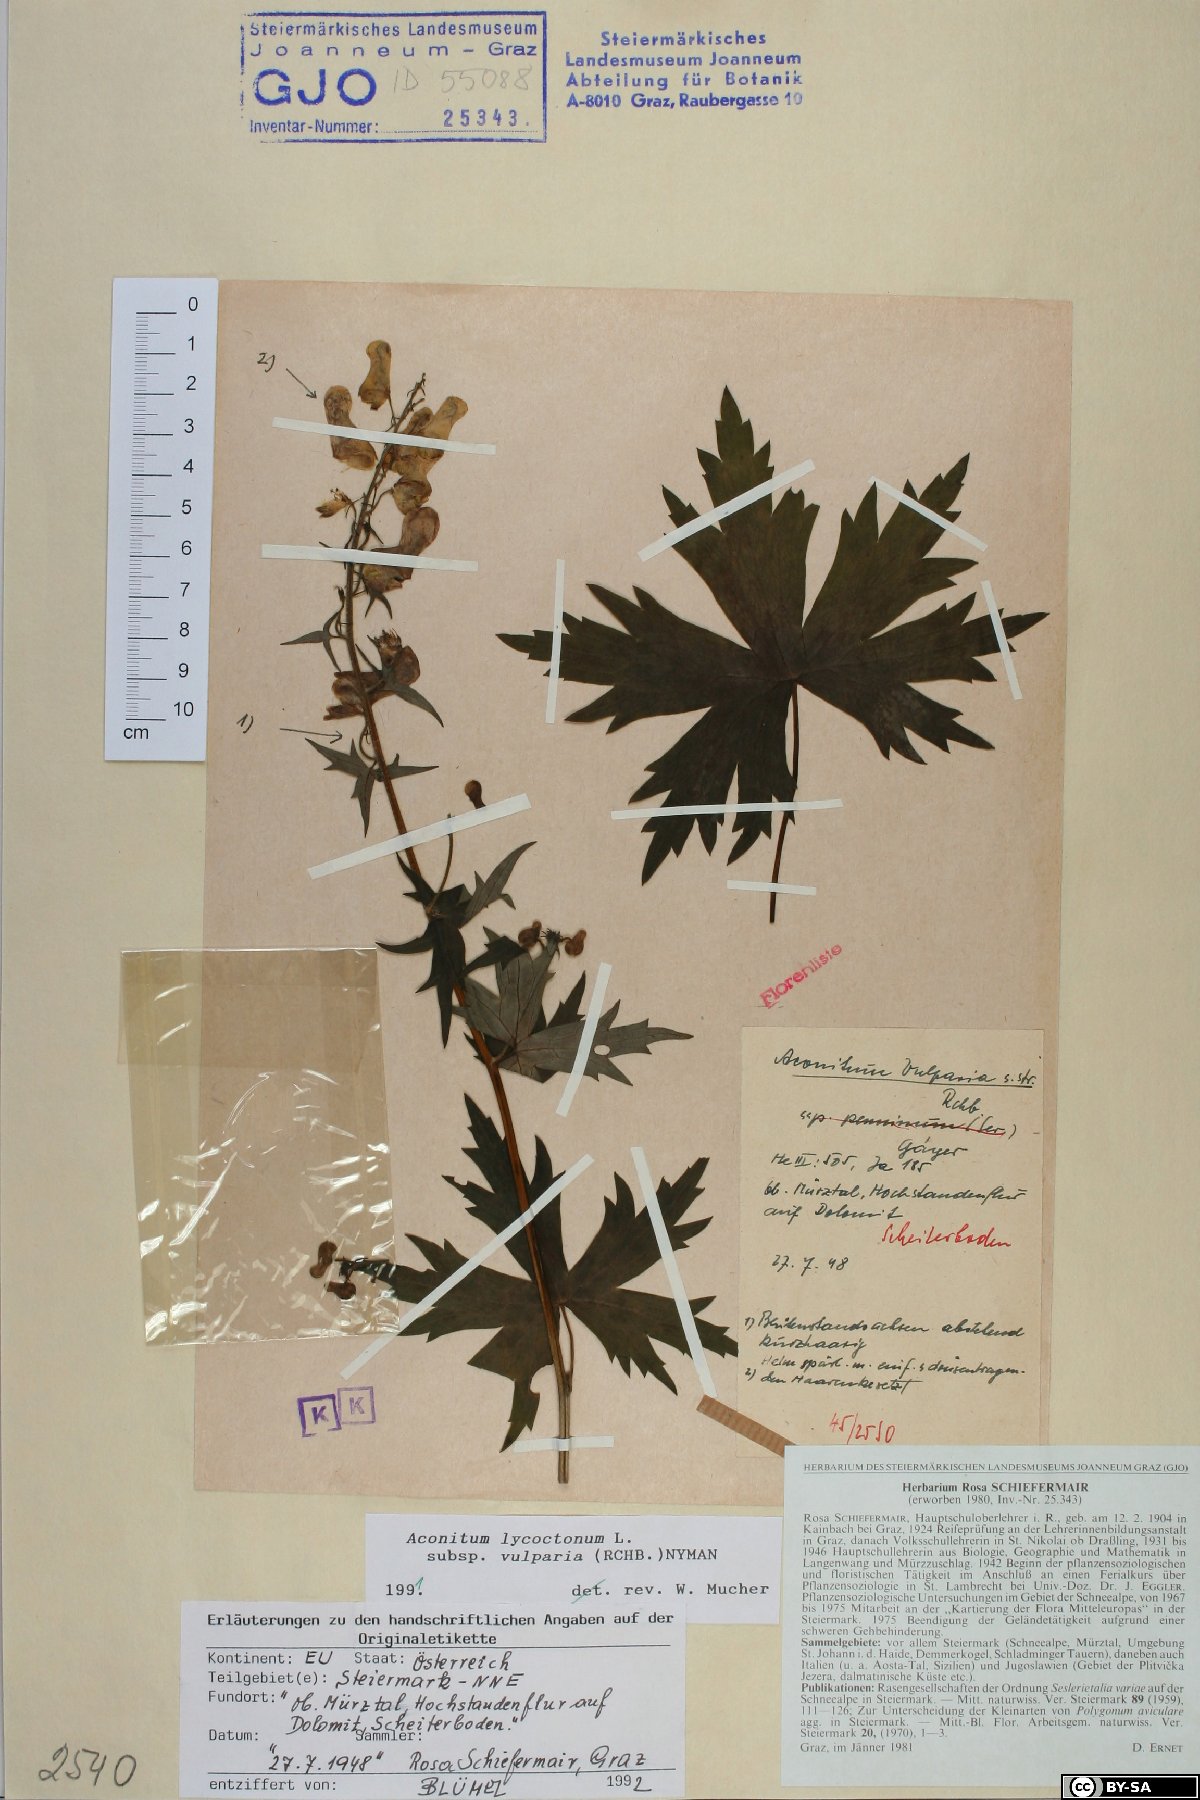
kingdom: Plantae
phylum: Tracheophyta
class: Magnoliopsida
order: Ranunculales
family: Ranunculaceae
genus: Aconitum
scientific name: Aconitum lycoctonum
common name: Wolf's-bane
